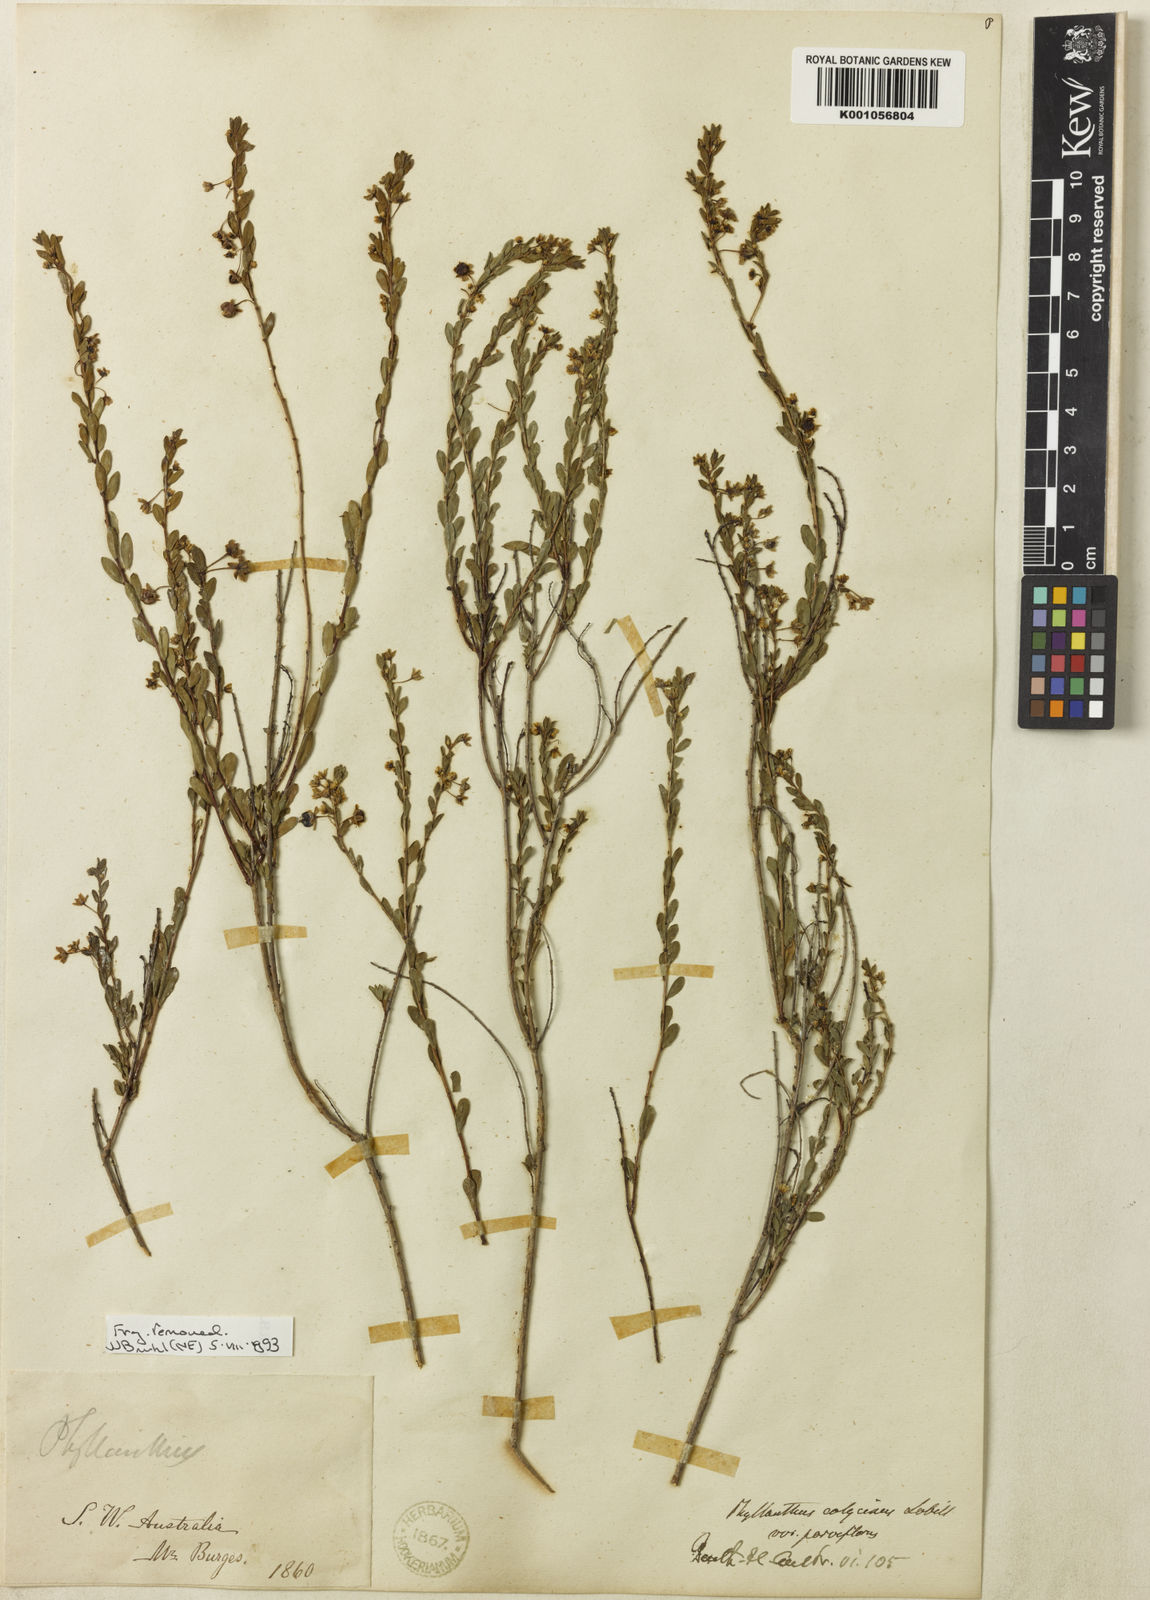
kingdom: Plantae
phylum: Tracheophyta
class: Magnoliopsida
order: Malpighiales
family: Phyllanthaceae
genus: Phyllanthus
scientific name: Phyllanthus calycinus
